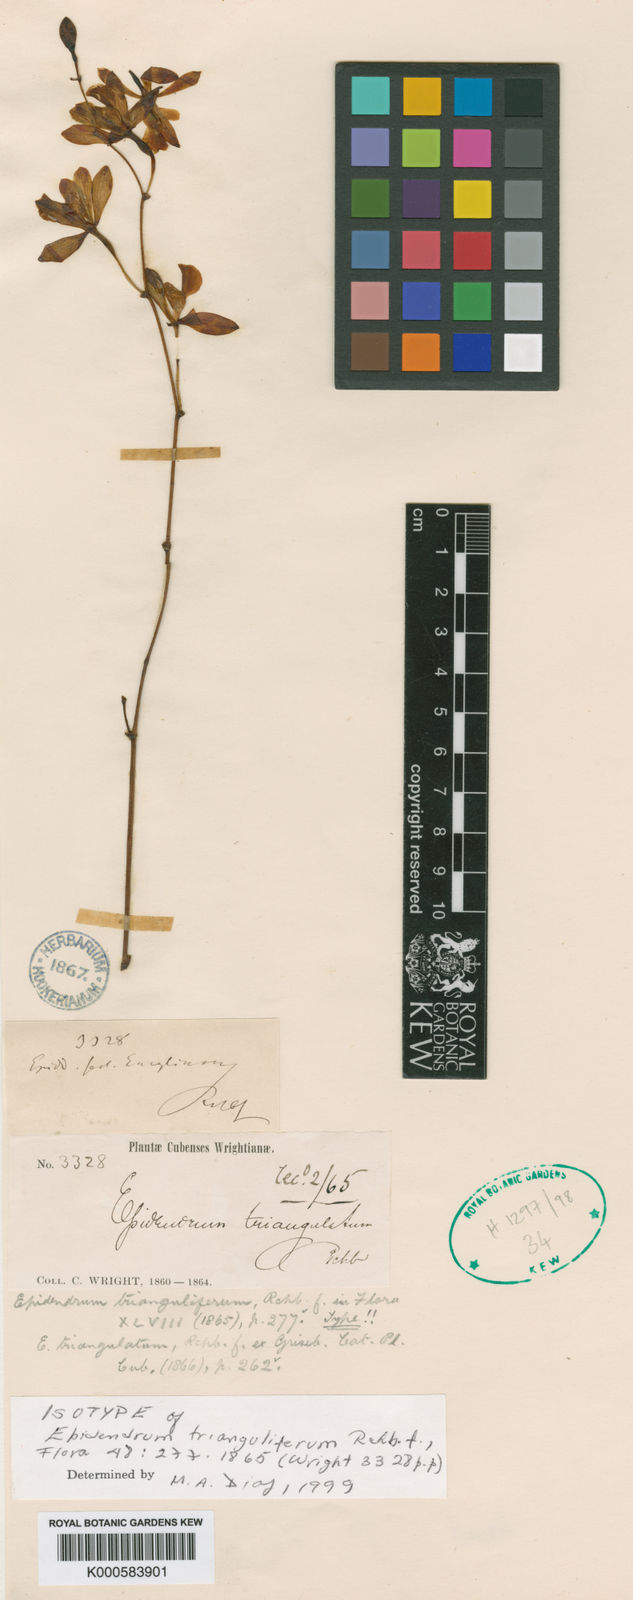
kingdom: Plantae
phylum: Tracheophyta
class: Liliopsida
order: Asparagales
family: Orchidaceae
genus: Encyclia
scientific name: Encyclia
